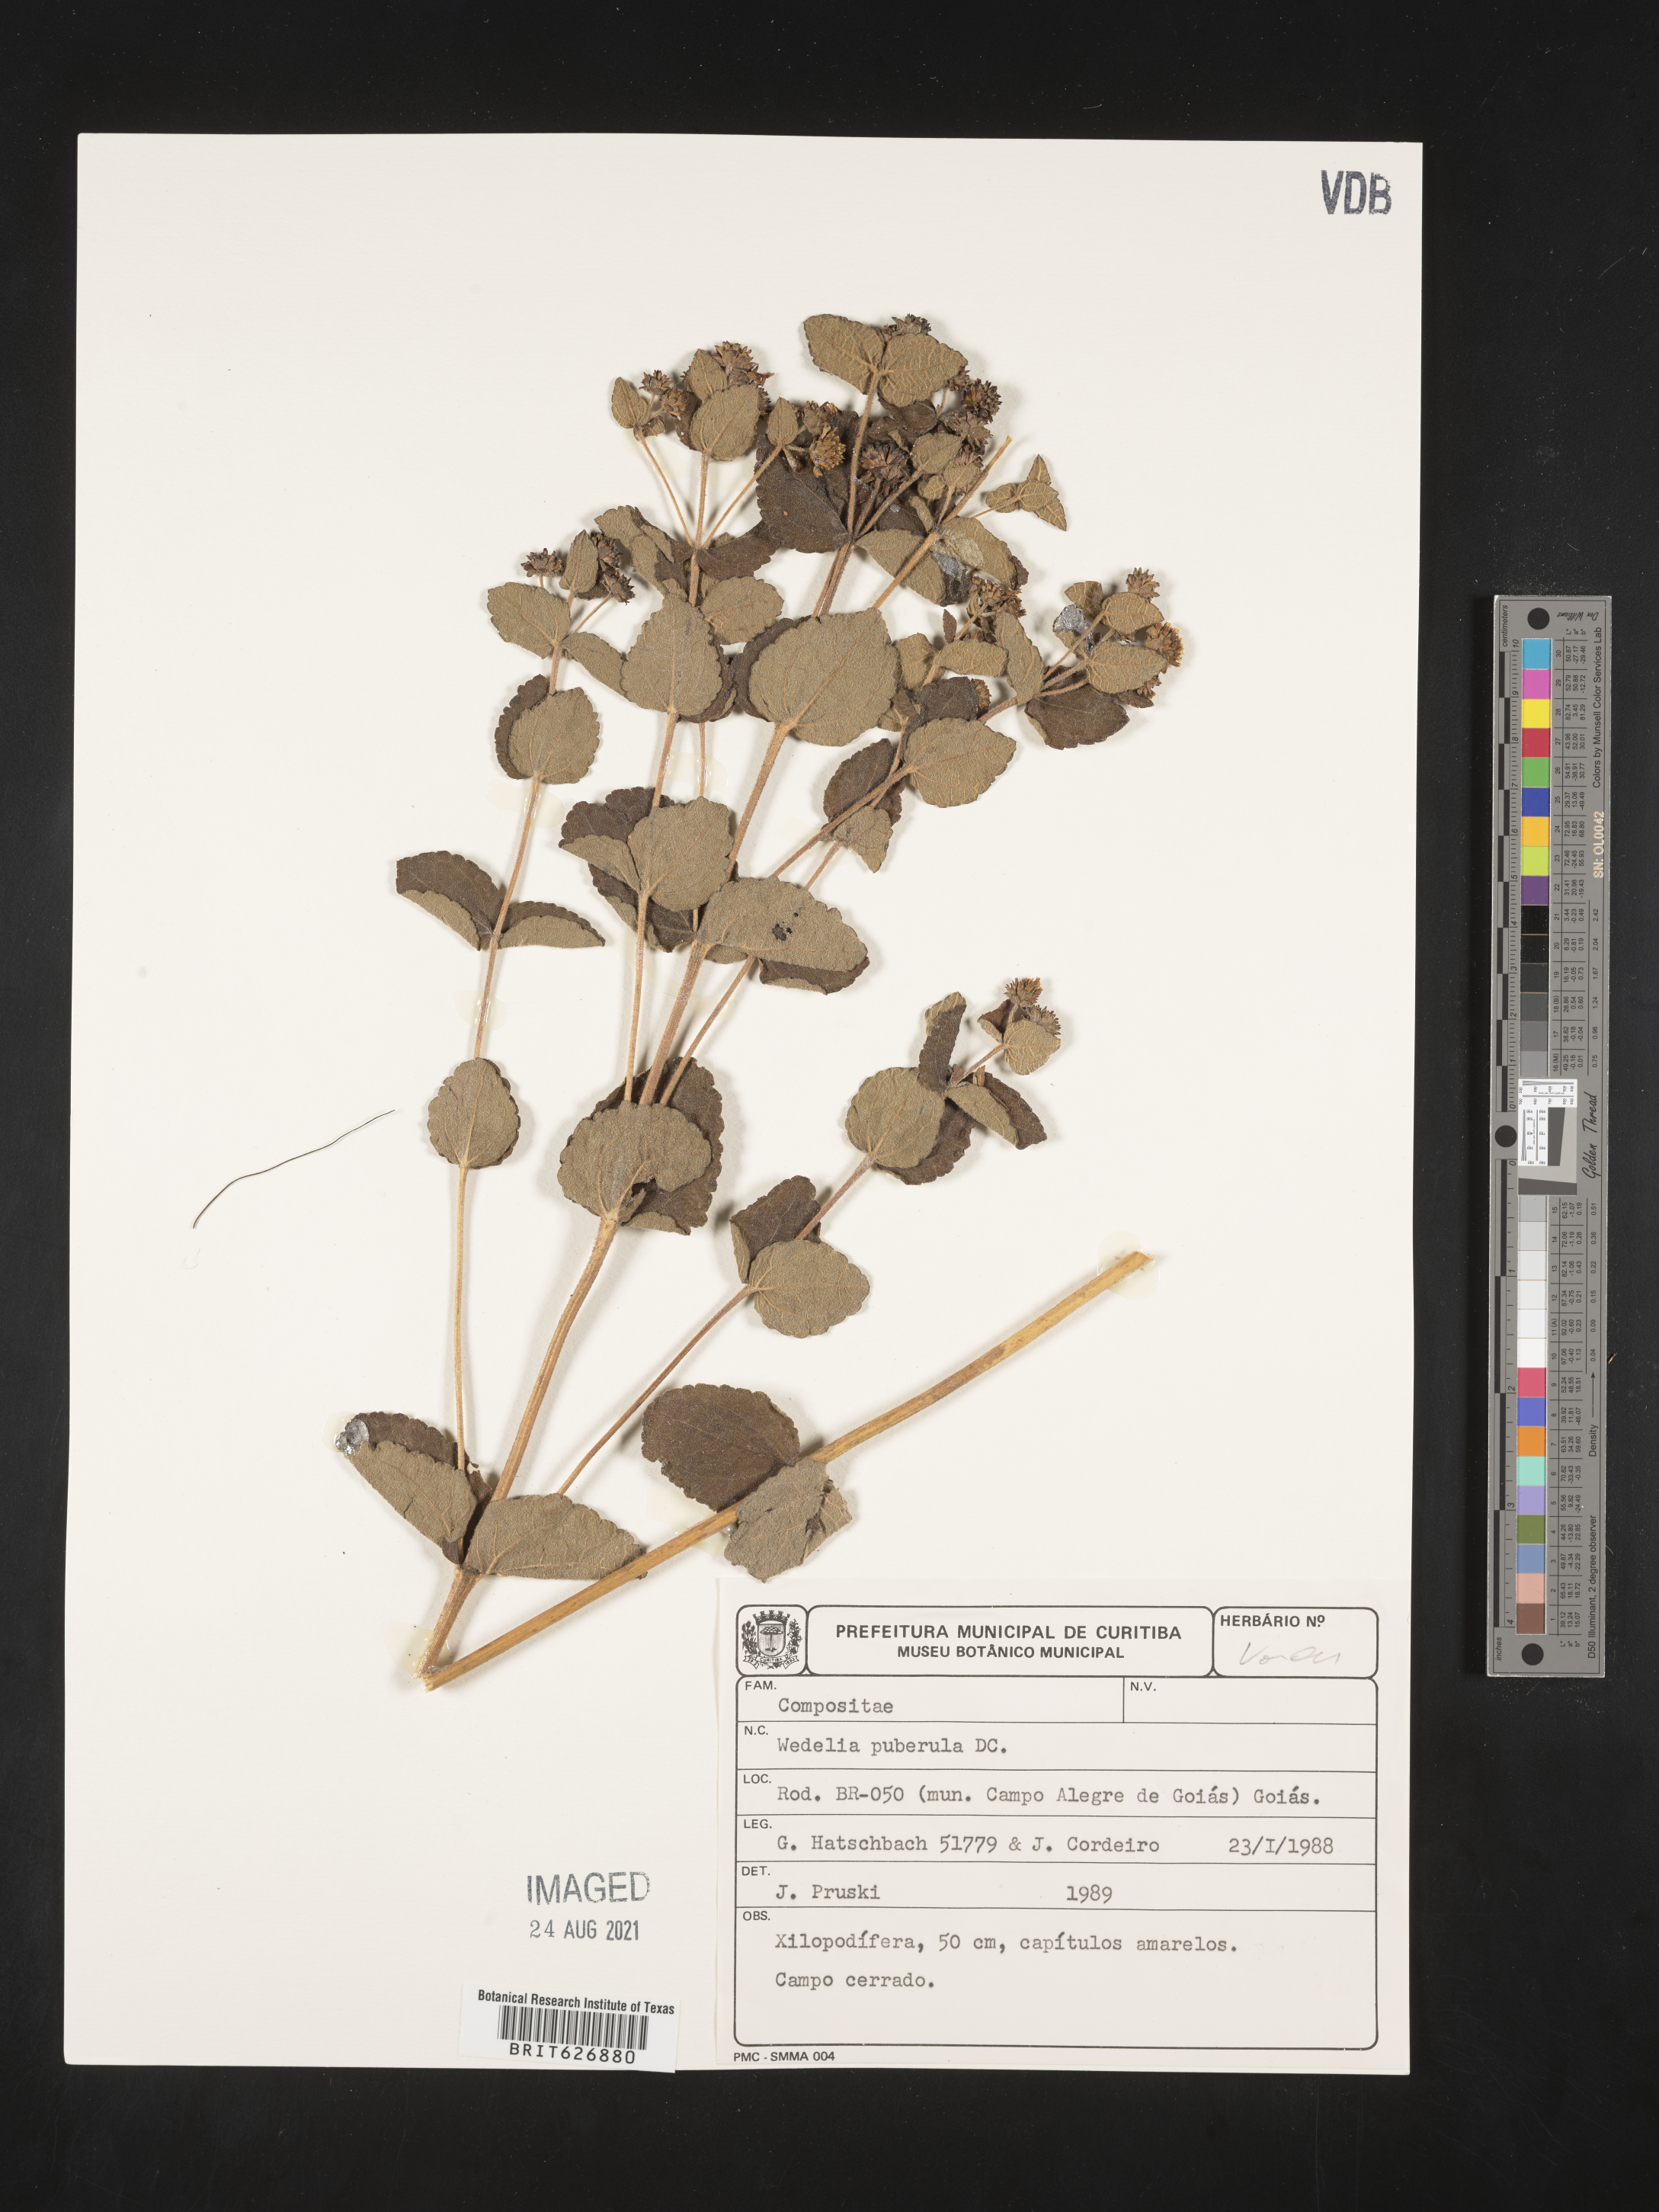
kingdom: Plantae
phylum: Tracheophyta
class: Magnoliopsida
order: Asterales
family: Asteraceae
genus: Wedelia
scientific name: Wedelia puberula
